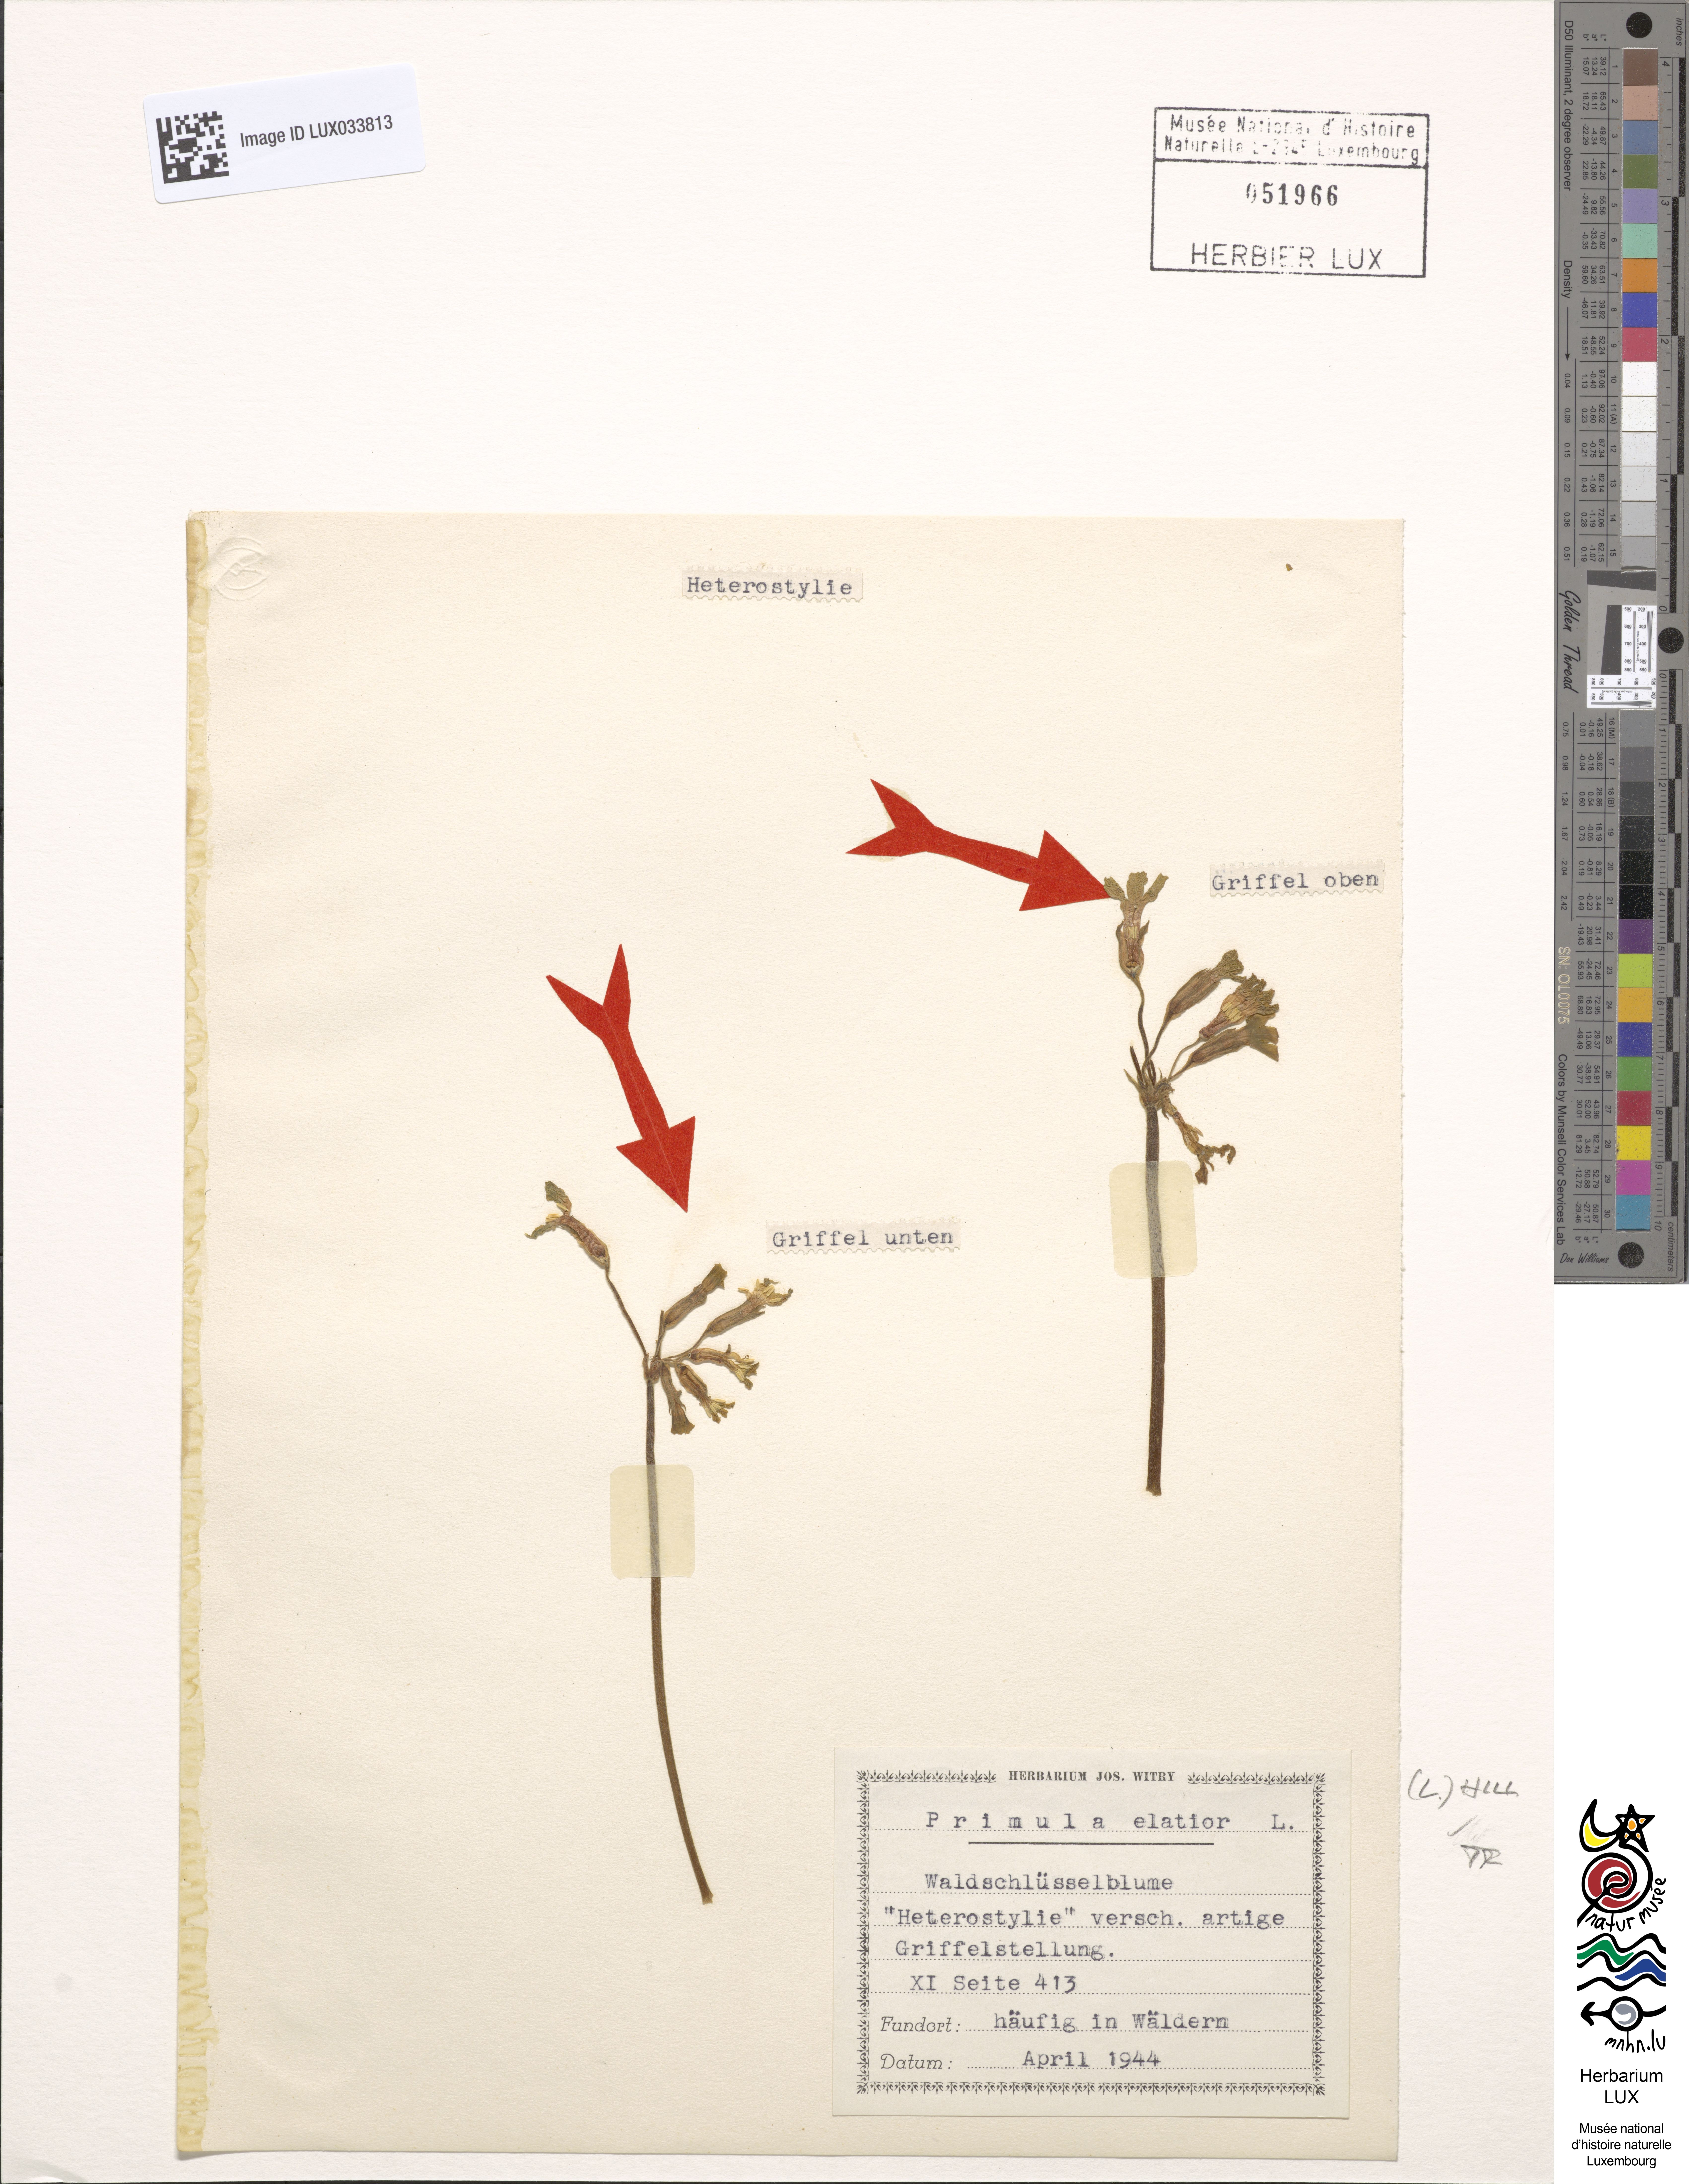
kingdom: Plantae
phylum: Tracheophyta
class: Magnoliopsida
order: Ericales
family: Primulaceae
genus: Primula
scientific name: Primula elatior
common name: Oxlip
